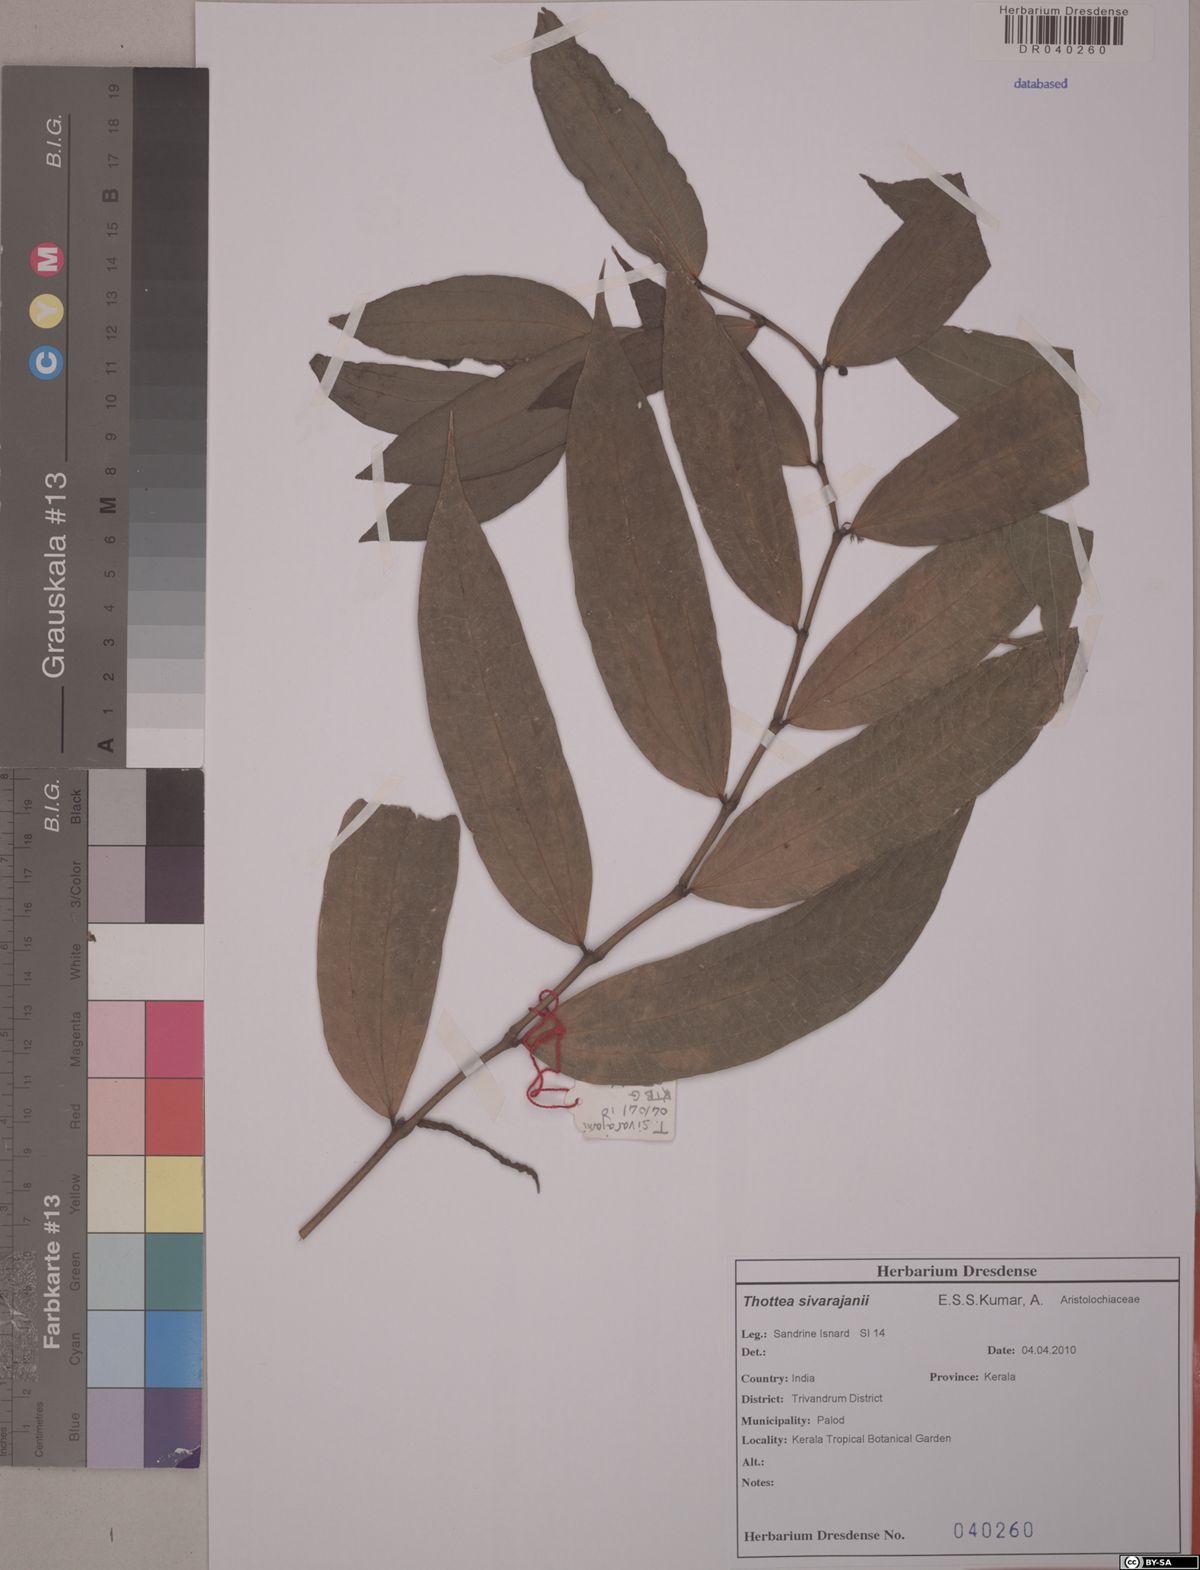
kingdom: Plantae
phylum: Tracheophyta
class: Magnoliopsida
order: Piperales
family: Aristolochiaceae
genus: Thottea
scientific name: Thottea sivarajanii
